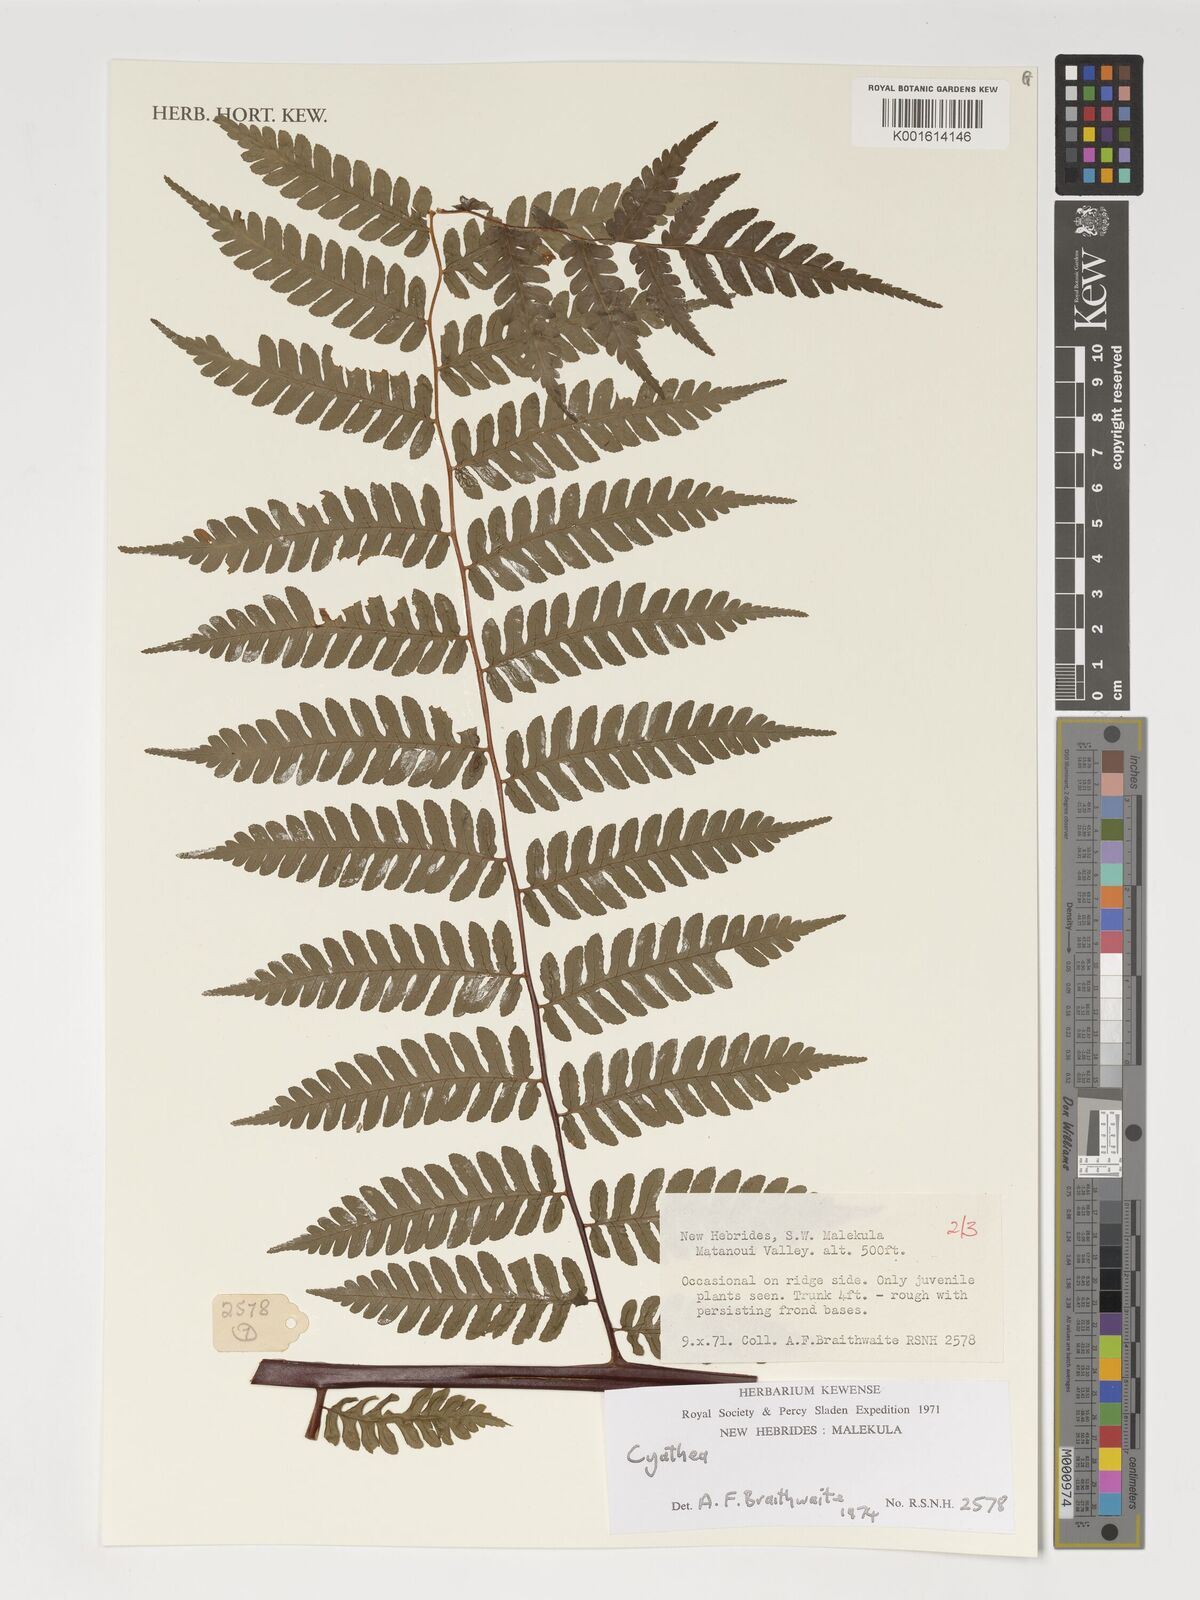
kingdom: Plantae
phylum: Tracheophyta
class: Polypodiopsida
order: Cyatheales
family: Cyatheaceae
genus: Cyathea
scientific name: Cyathea
